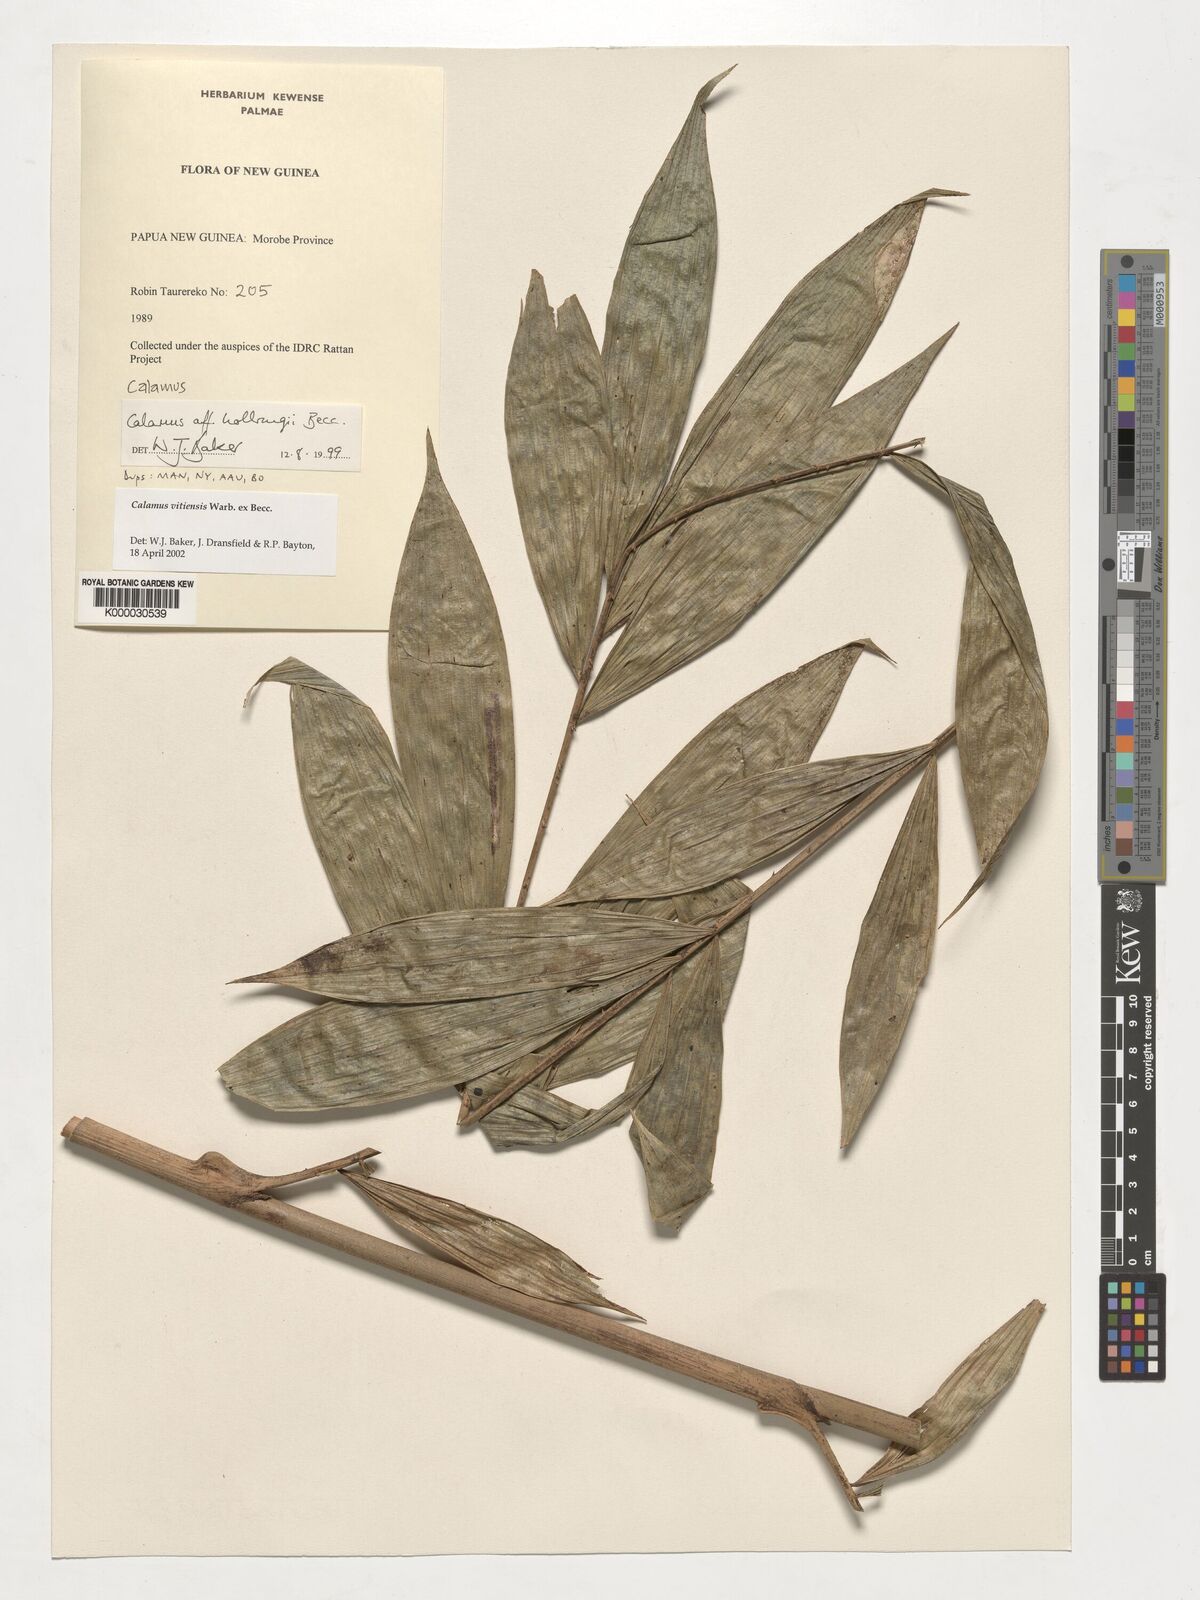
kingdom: Plantae
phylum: Tracheophyta
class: Liliopsida
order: Arecales
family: Arecaceae
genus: Calamus
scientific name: Calamus vitiensis
